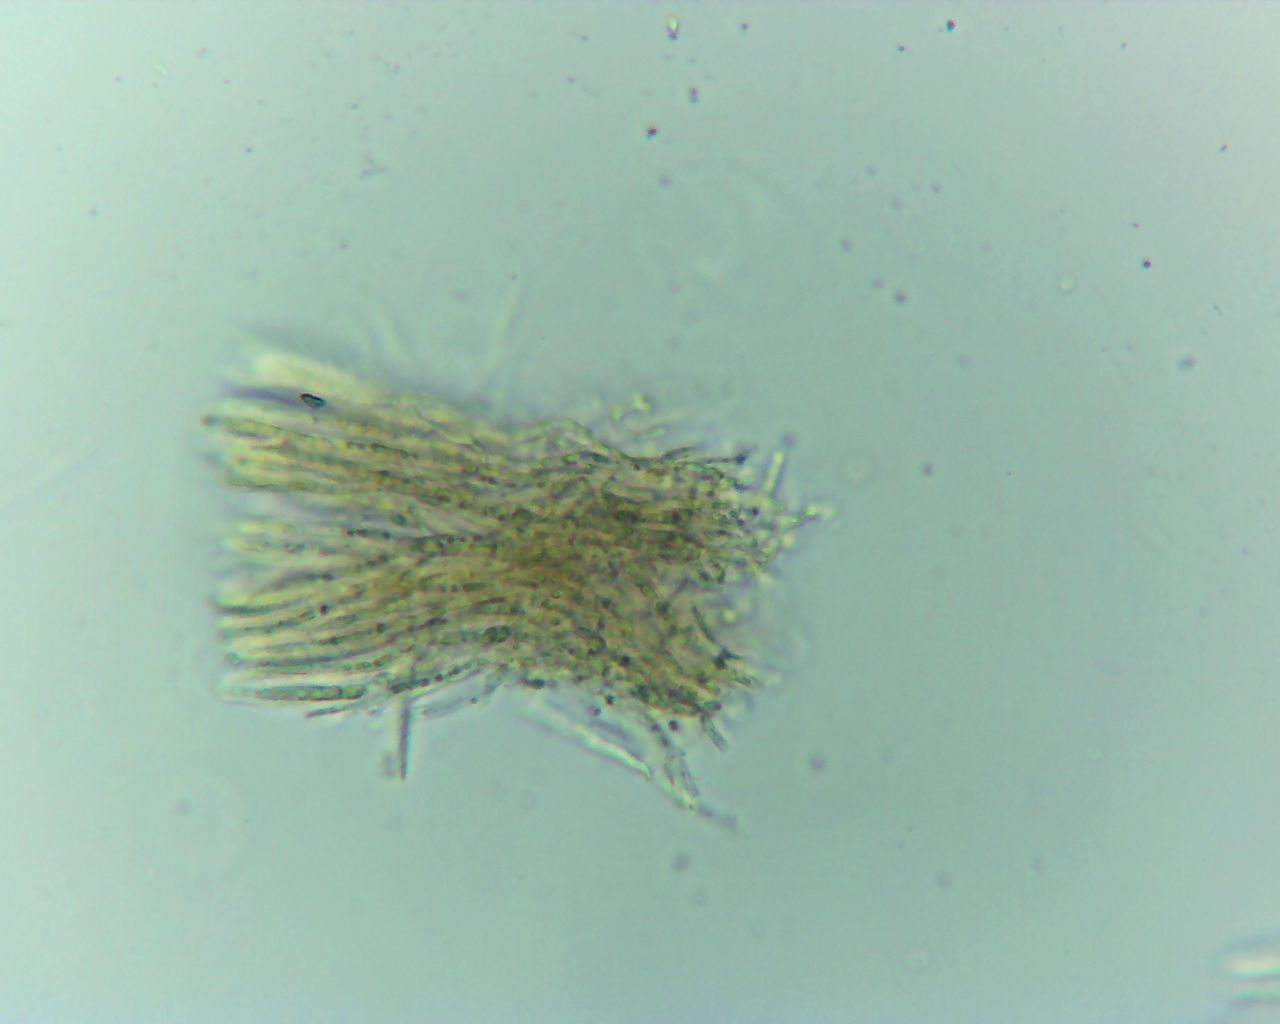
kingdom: Fungi
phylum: Ascomycota
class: Leotiomycetes
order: Helotiales
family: Lachnaceae
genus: Capitotricha
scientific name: Capitotricha bicolor
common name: prægtig frynseskive
